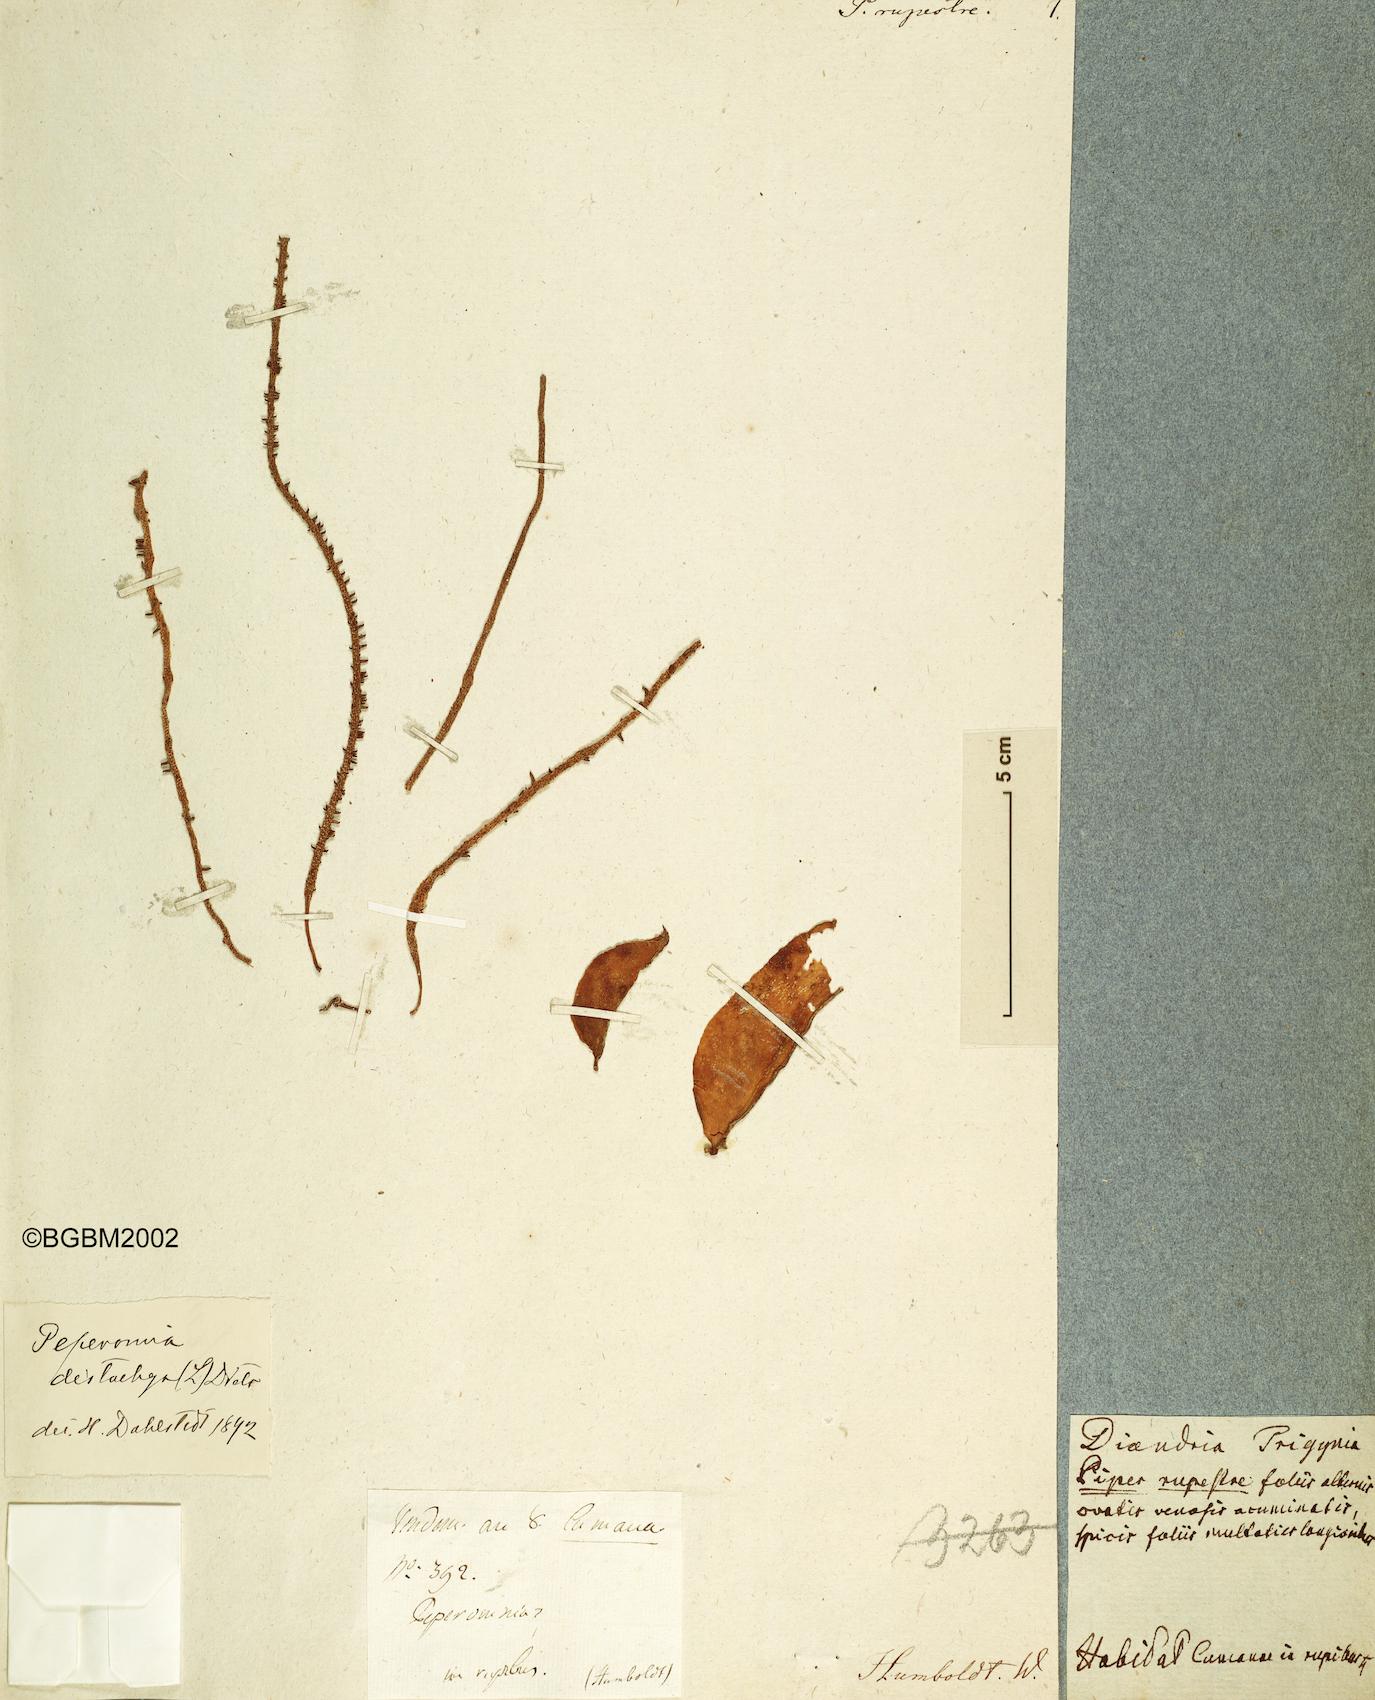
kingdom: Plantae
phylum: Tracheophyta
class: Magnoliopsida
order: Piperales
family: Piperaceae
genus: Peperomia
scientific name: Peperomia rupestris
